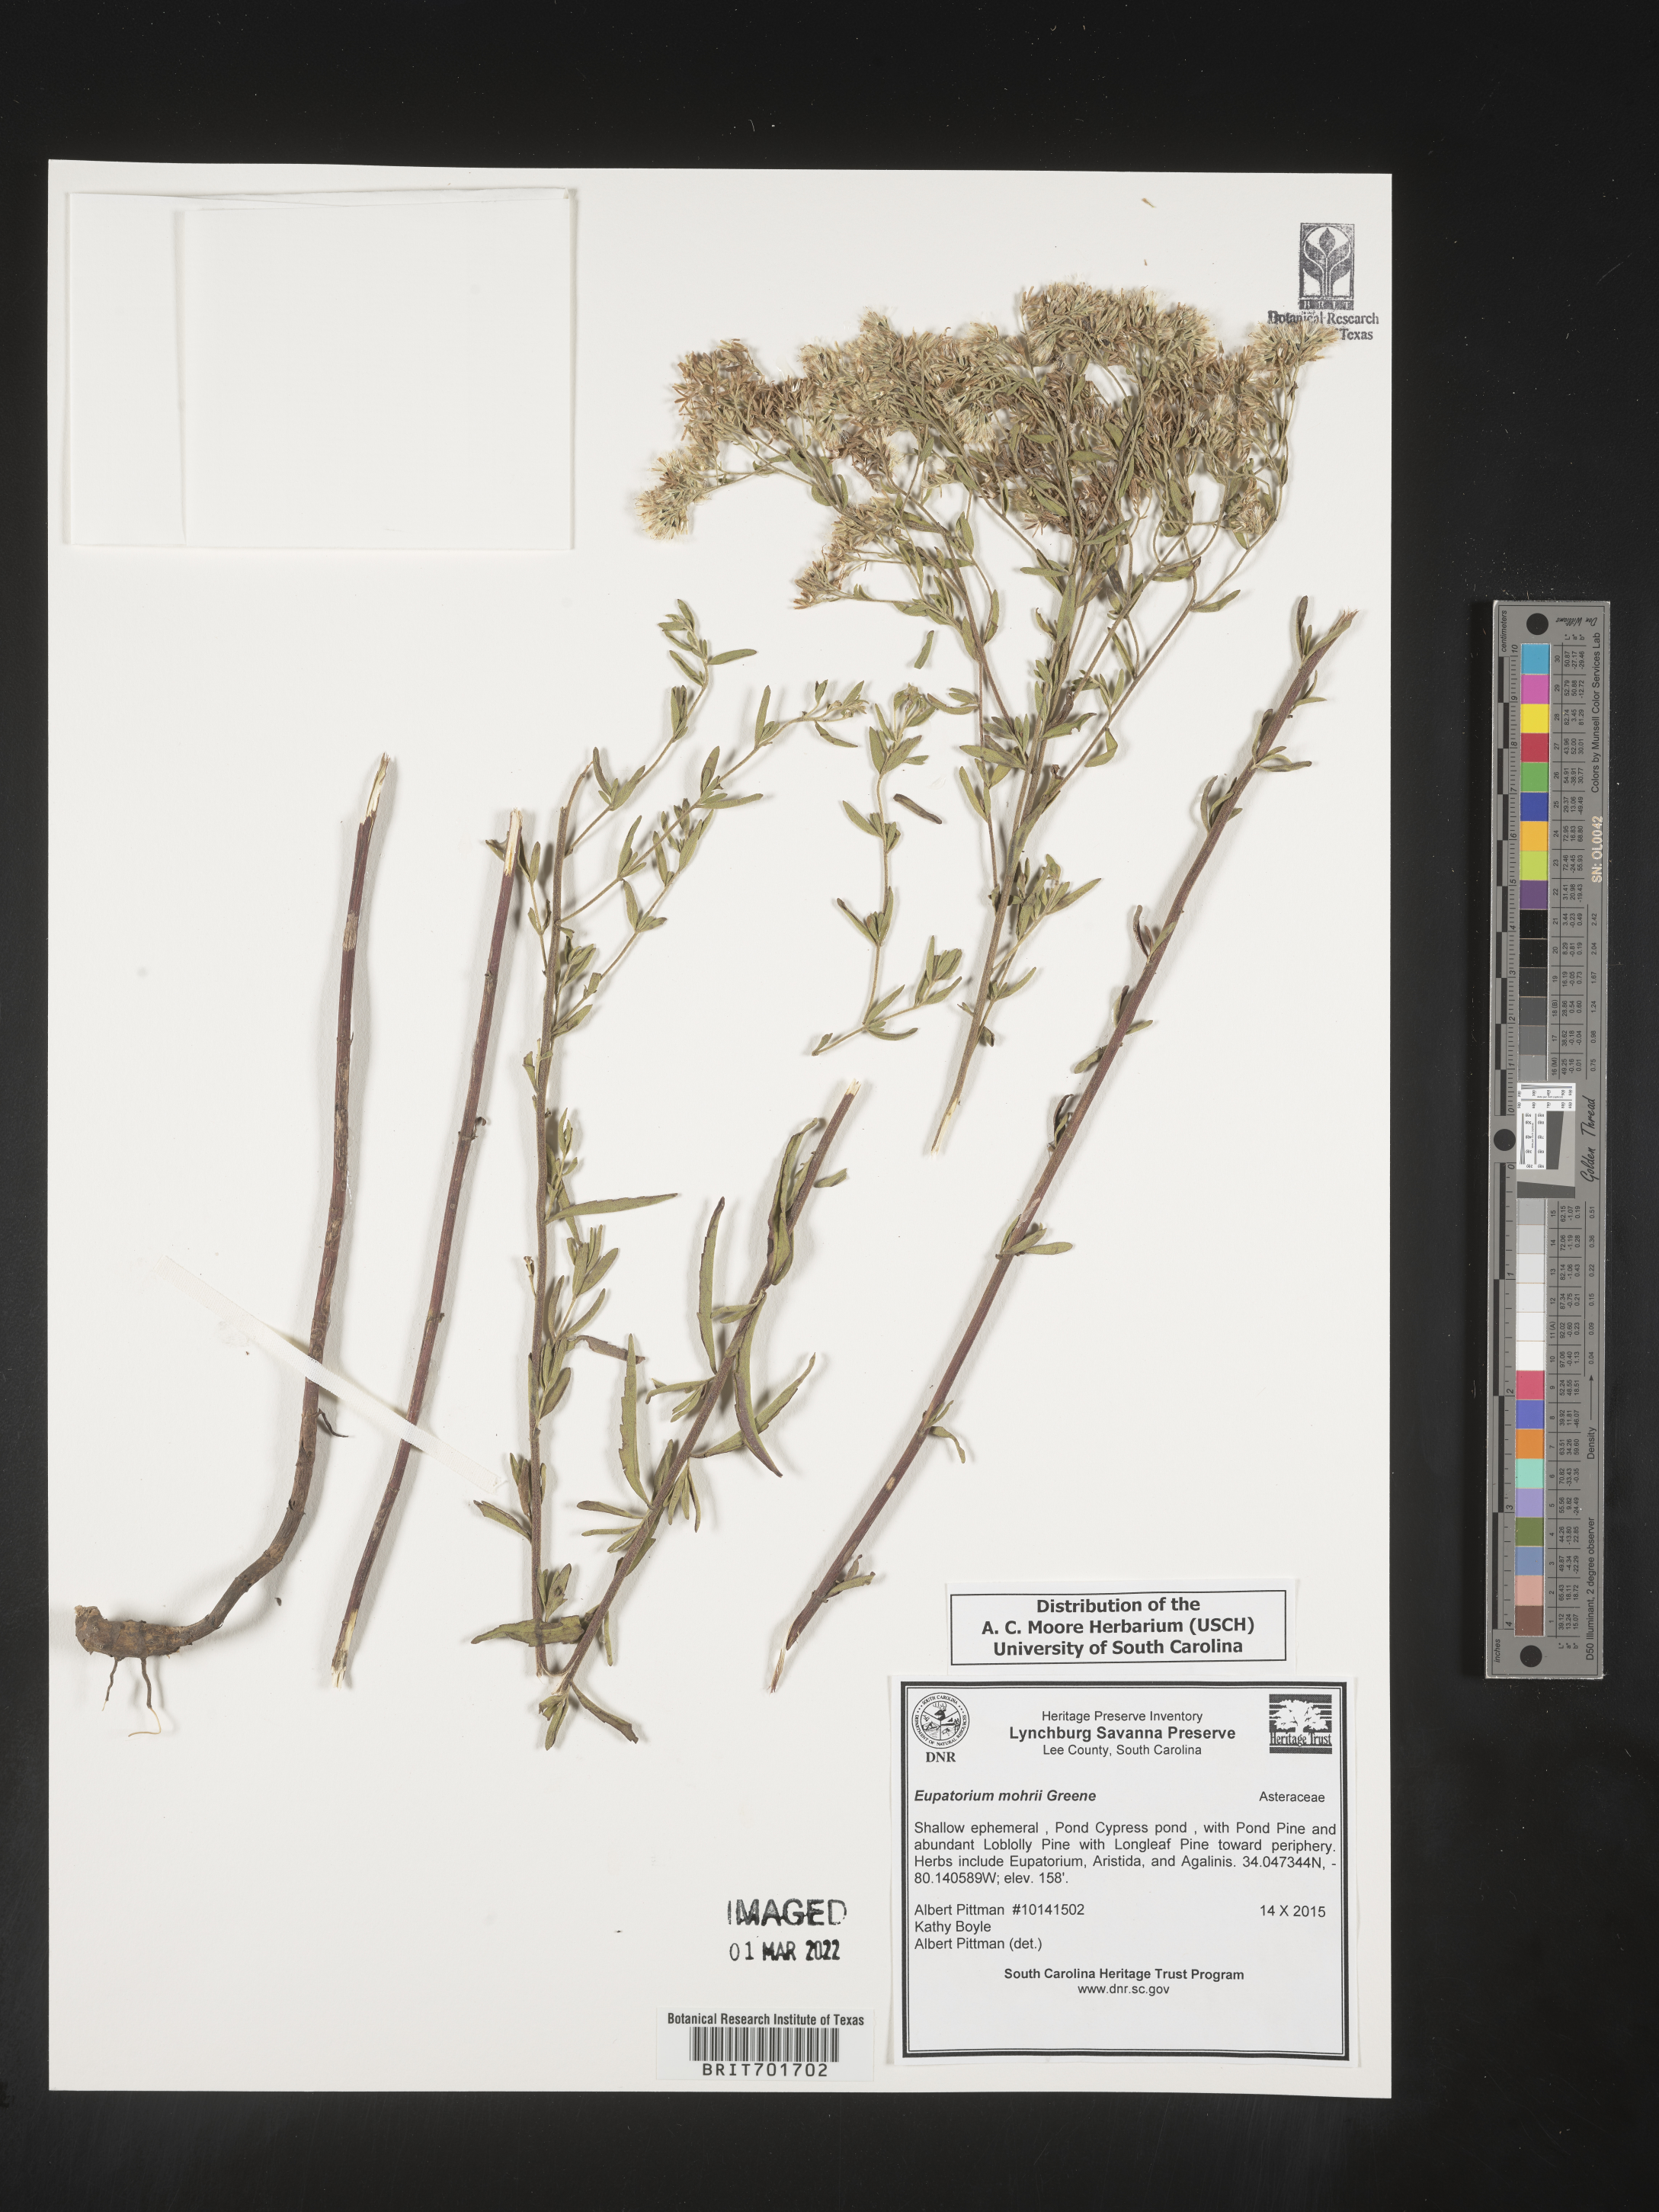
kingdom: Plantae
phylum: Tracheophyta
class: Magnoliopsida
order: Asterales
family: Asteraceae
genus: Eupatorium
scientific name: Eupatorium mohrii
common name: Mohr's thoroughwort
